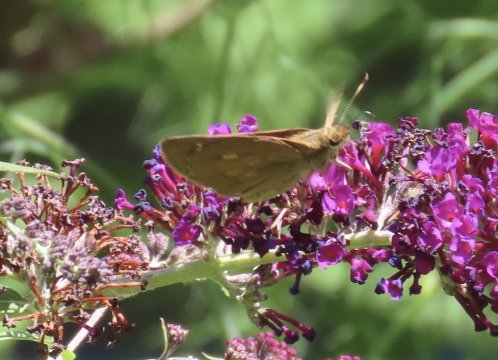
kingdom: Animalia
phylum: Arthropoda
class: Insecta
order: Lepidoptera
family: Hesperiidae
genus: Poanes
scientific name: Poanes viator
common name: Broad-winged Skipper
